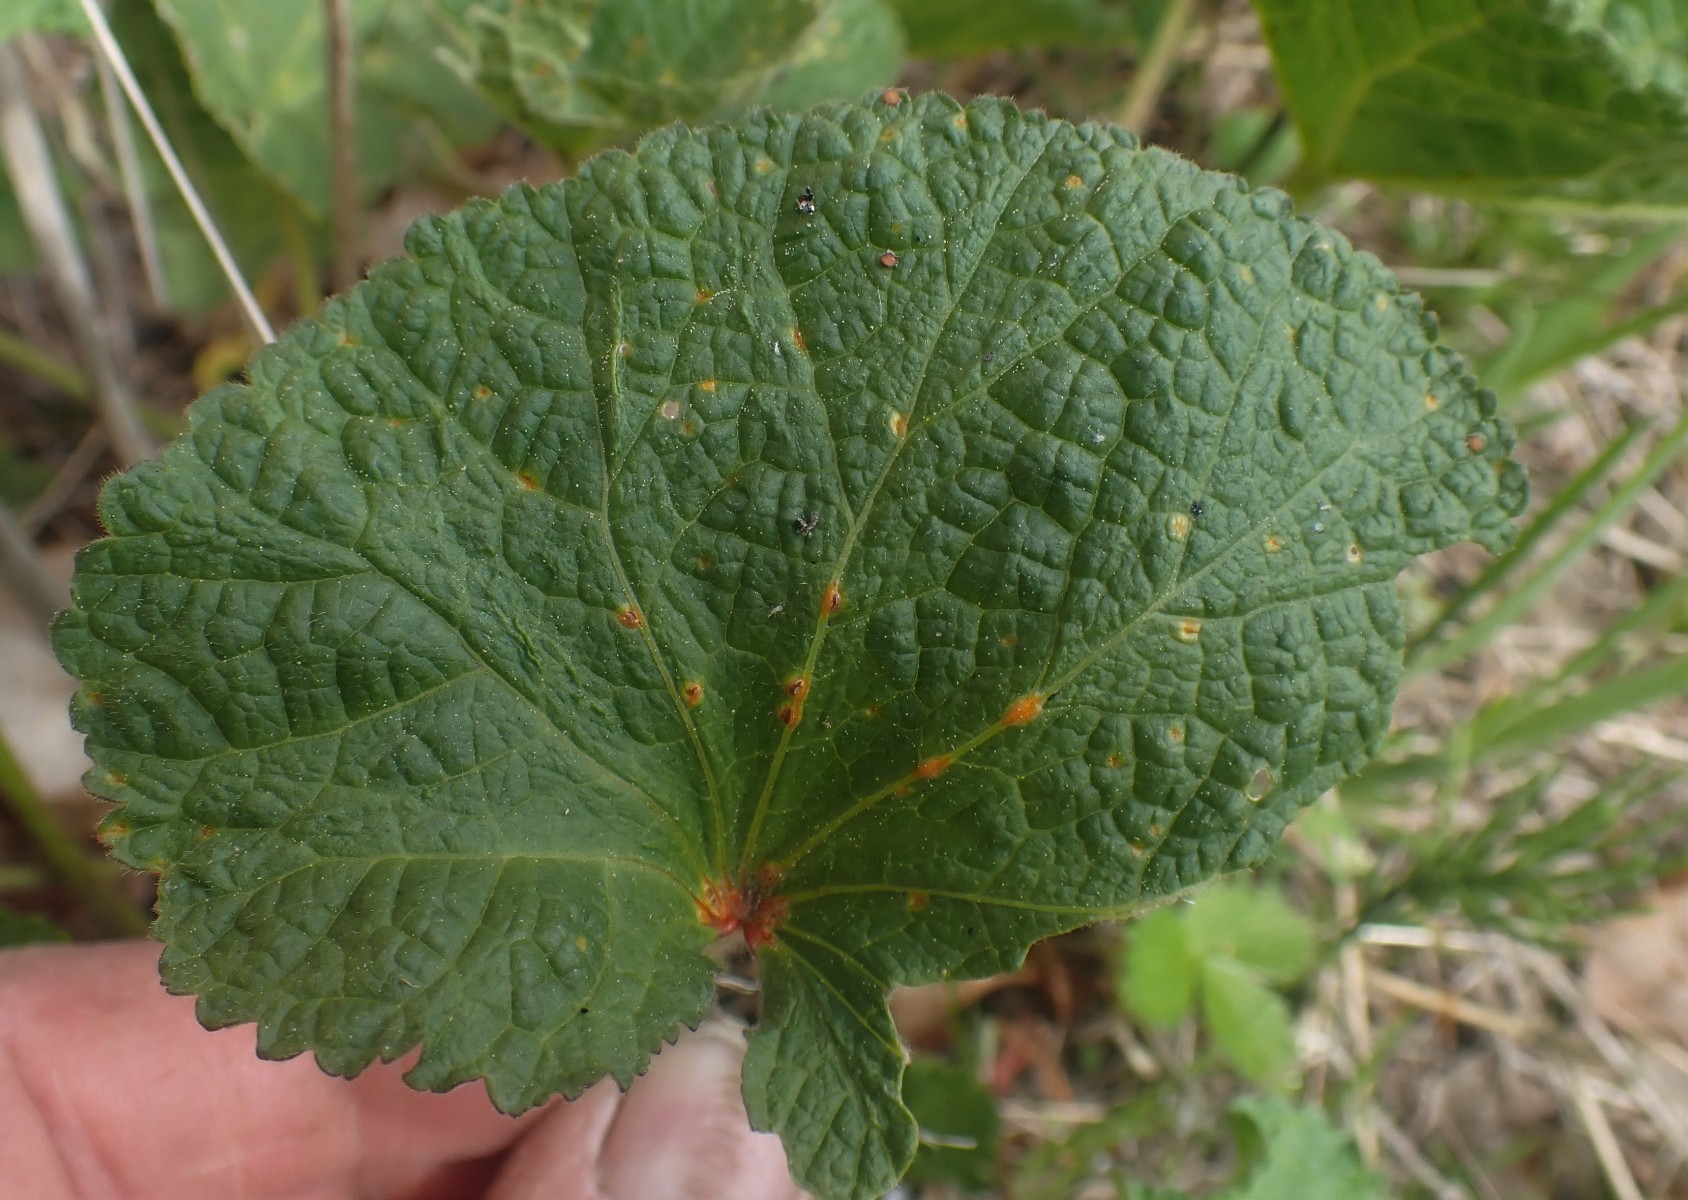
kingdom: Fungi
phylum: Basidiomycota
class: Pucciniomycetes
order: Pucciniales
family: Pucciniaceae
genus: Puccinia
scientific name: Puccinia malvacearum
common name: stokrose-tvecellerust
